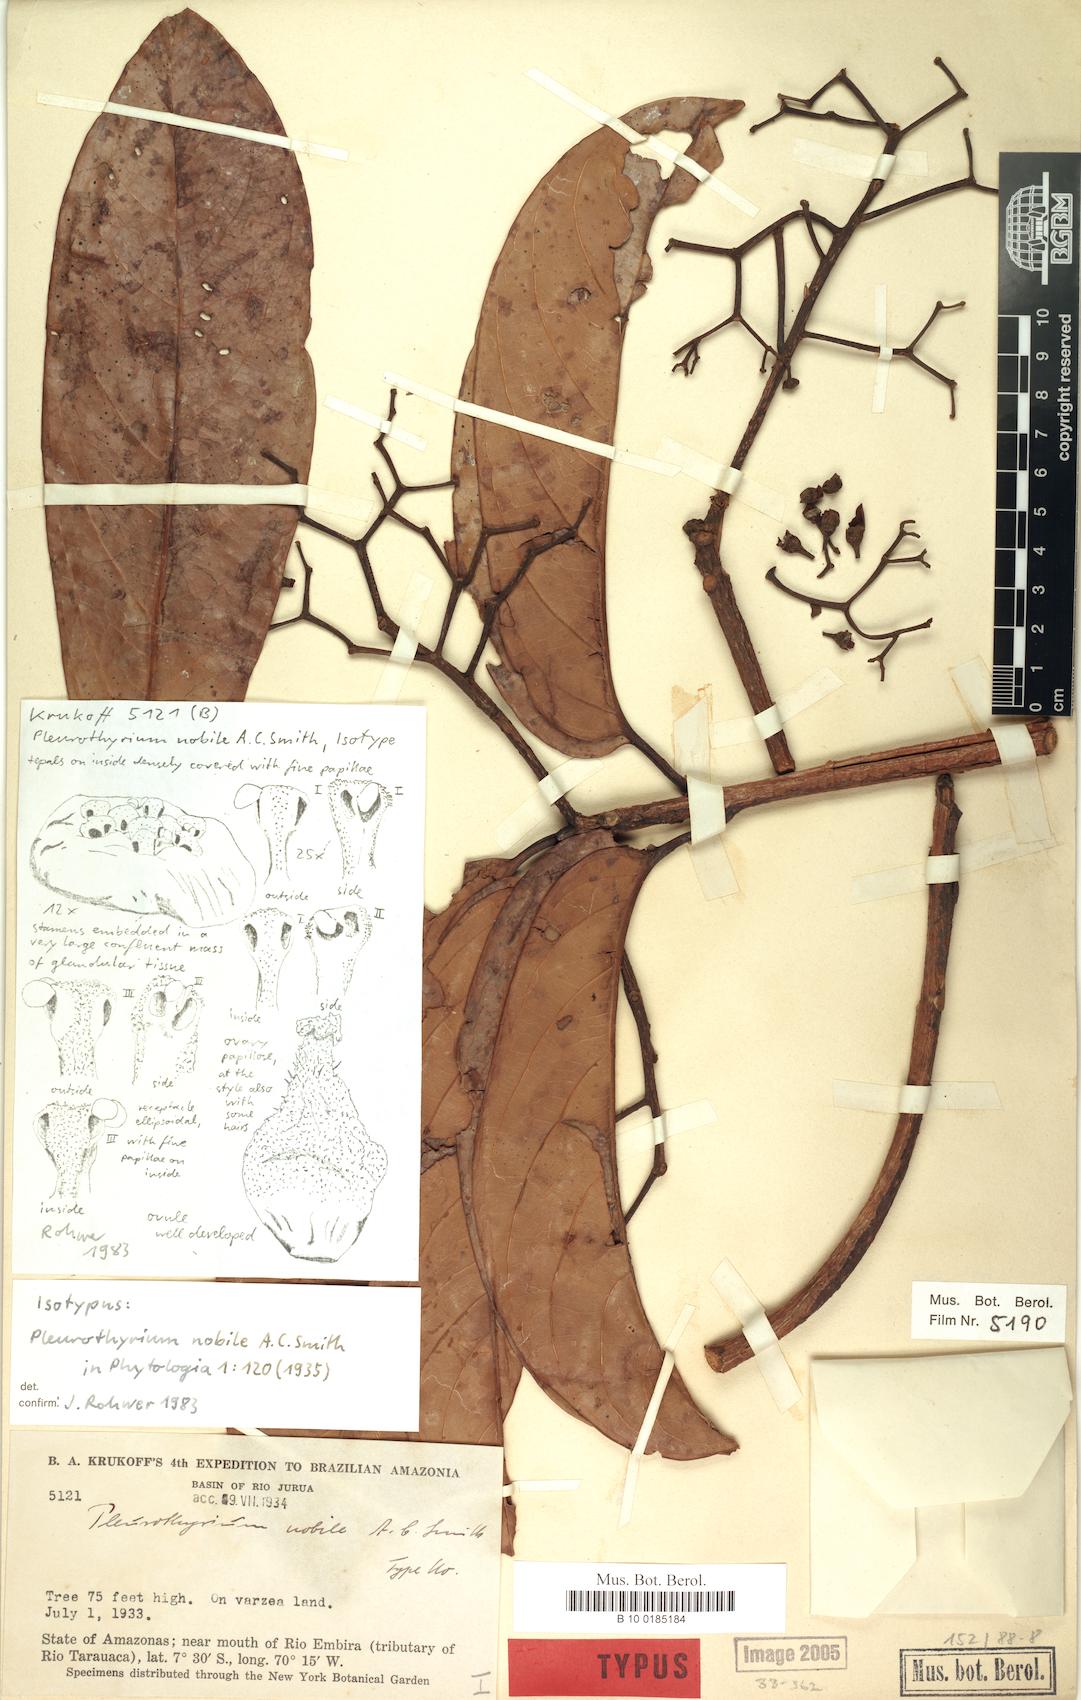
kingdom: Plantae
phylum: Tracheophyta
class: Magnoliopsida
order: Laurales
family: Lauraceae
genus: Ocotea
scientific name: Ocotea nobilis
